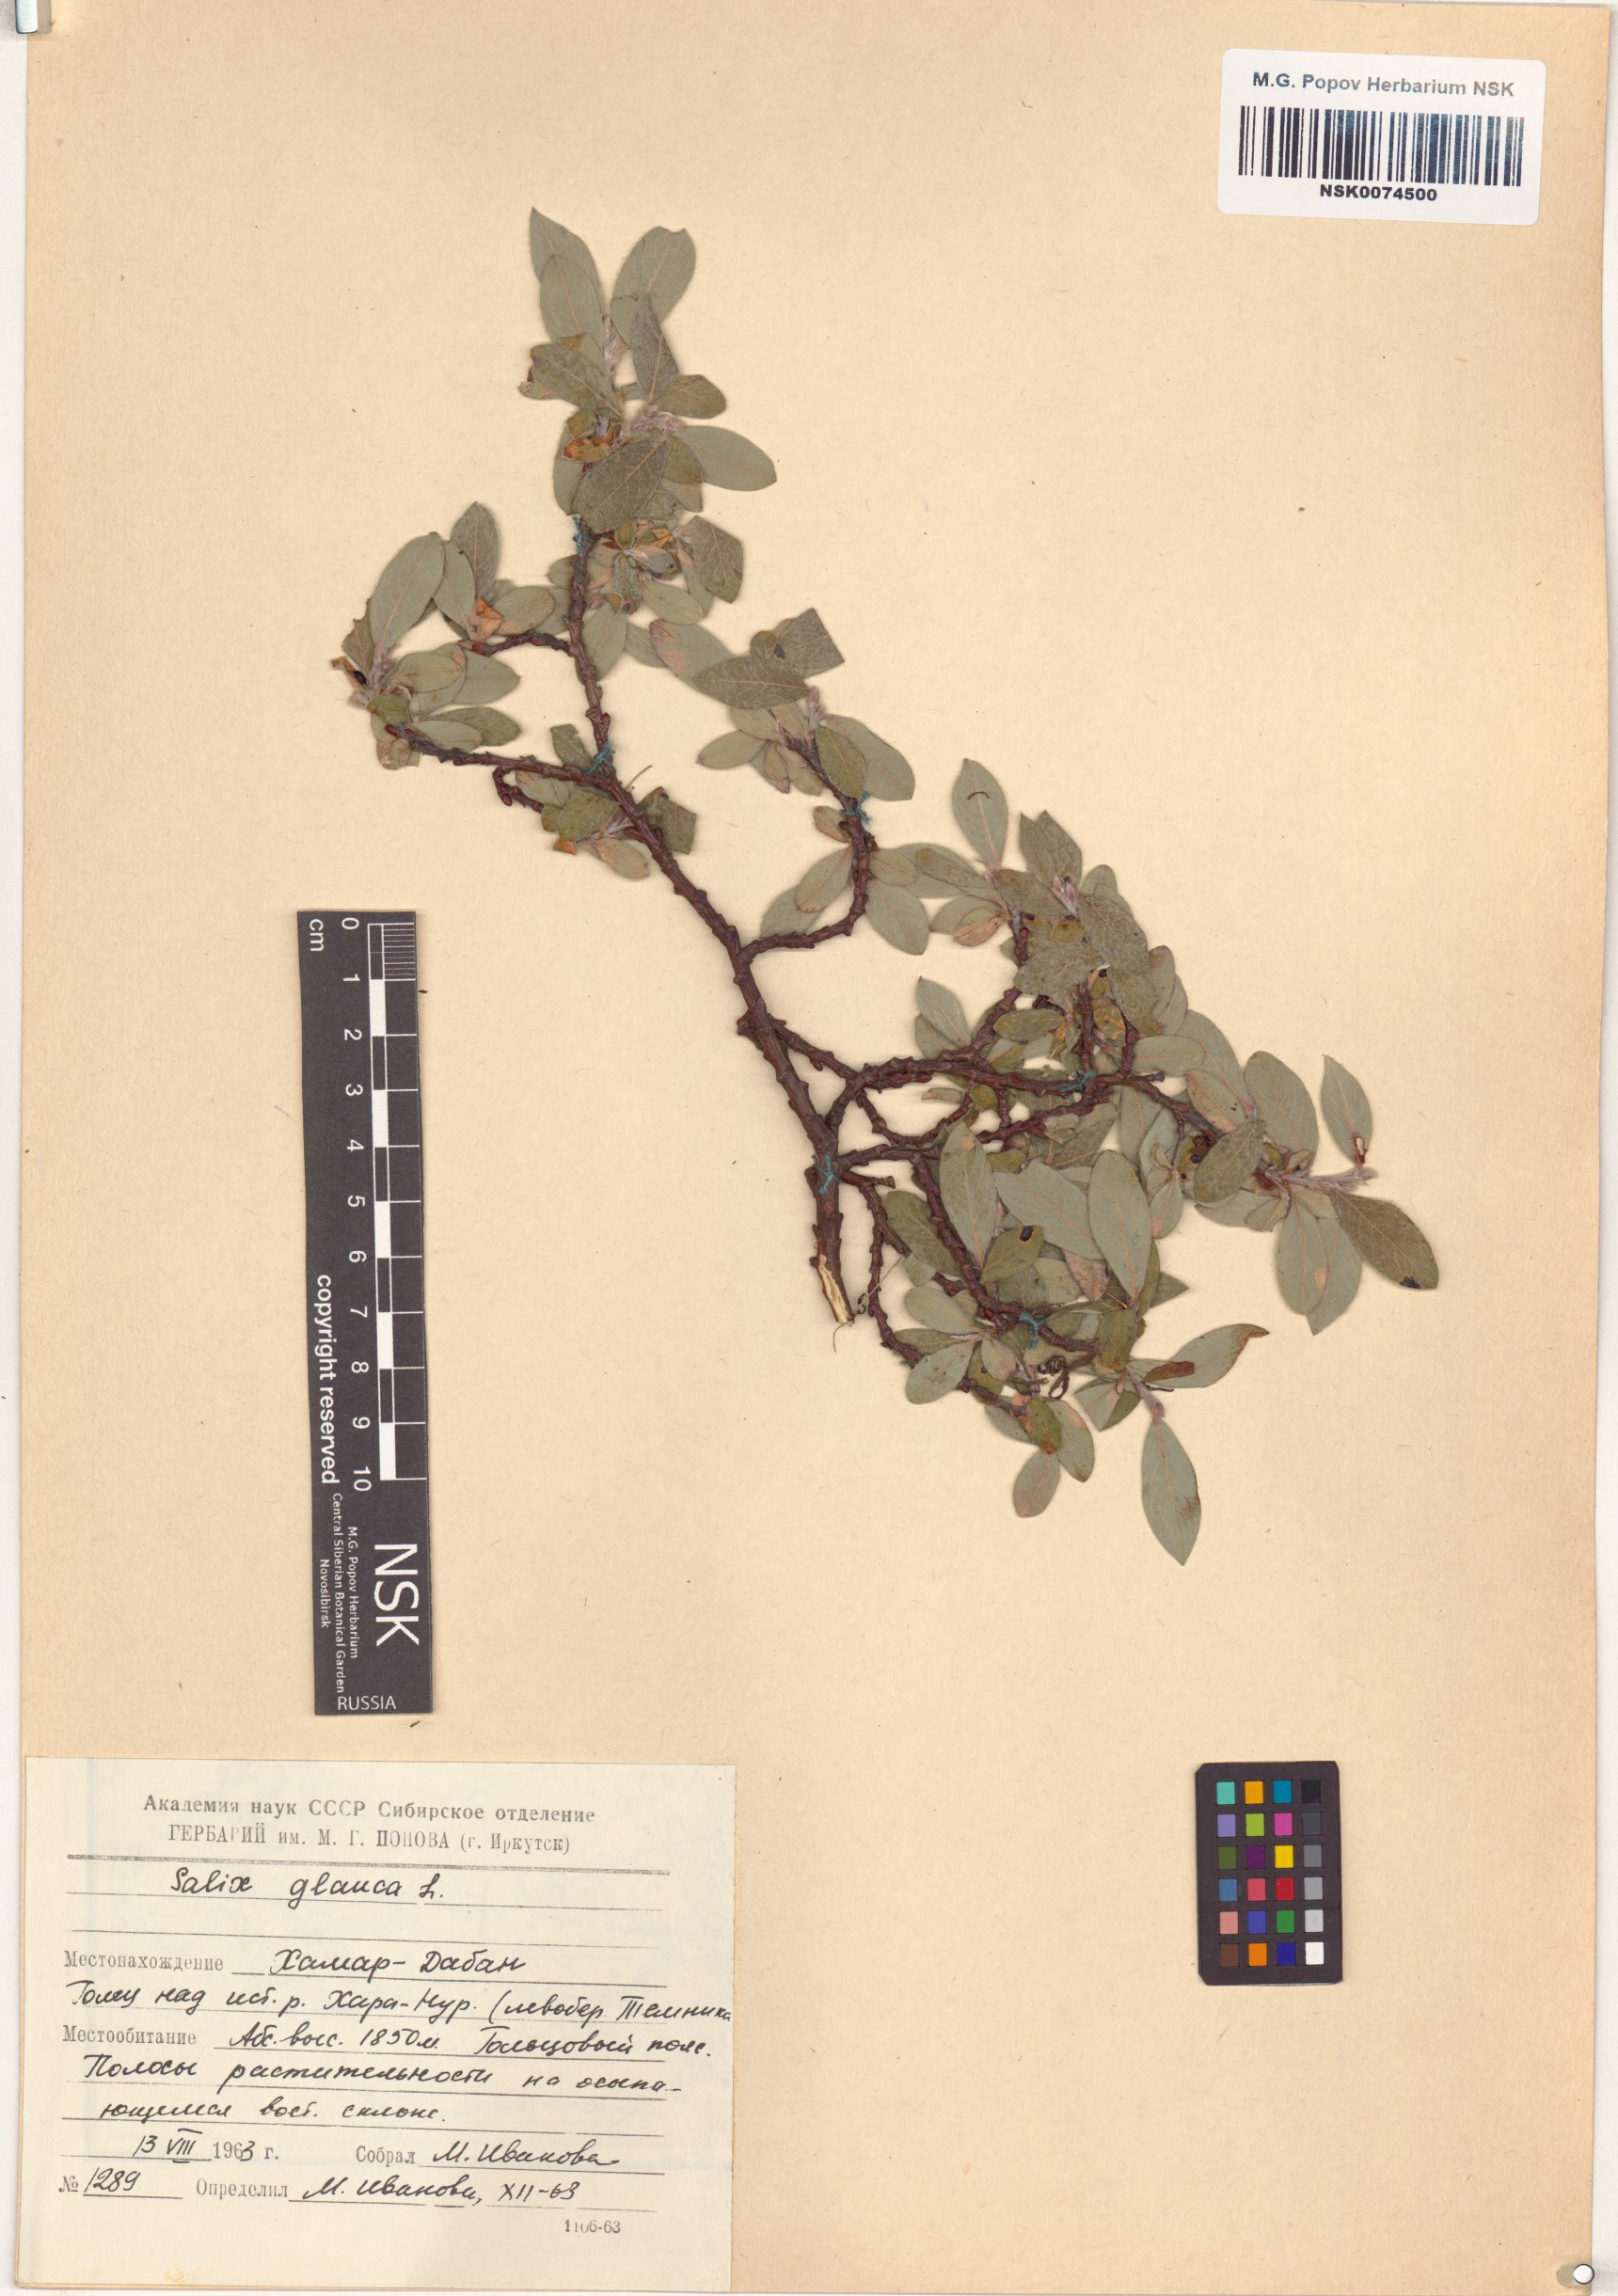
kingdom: Plantae
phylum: Tracheophyta
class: Magnoliopsida
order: Malpighiales
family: Salicaceae
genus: Salix
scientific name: Salix glauca
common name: Glaucous willow
